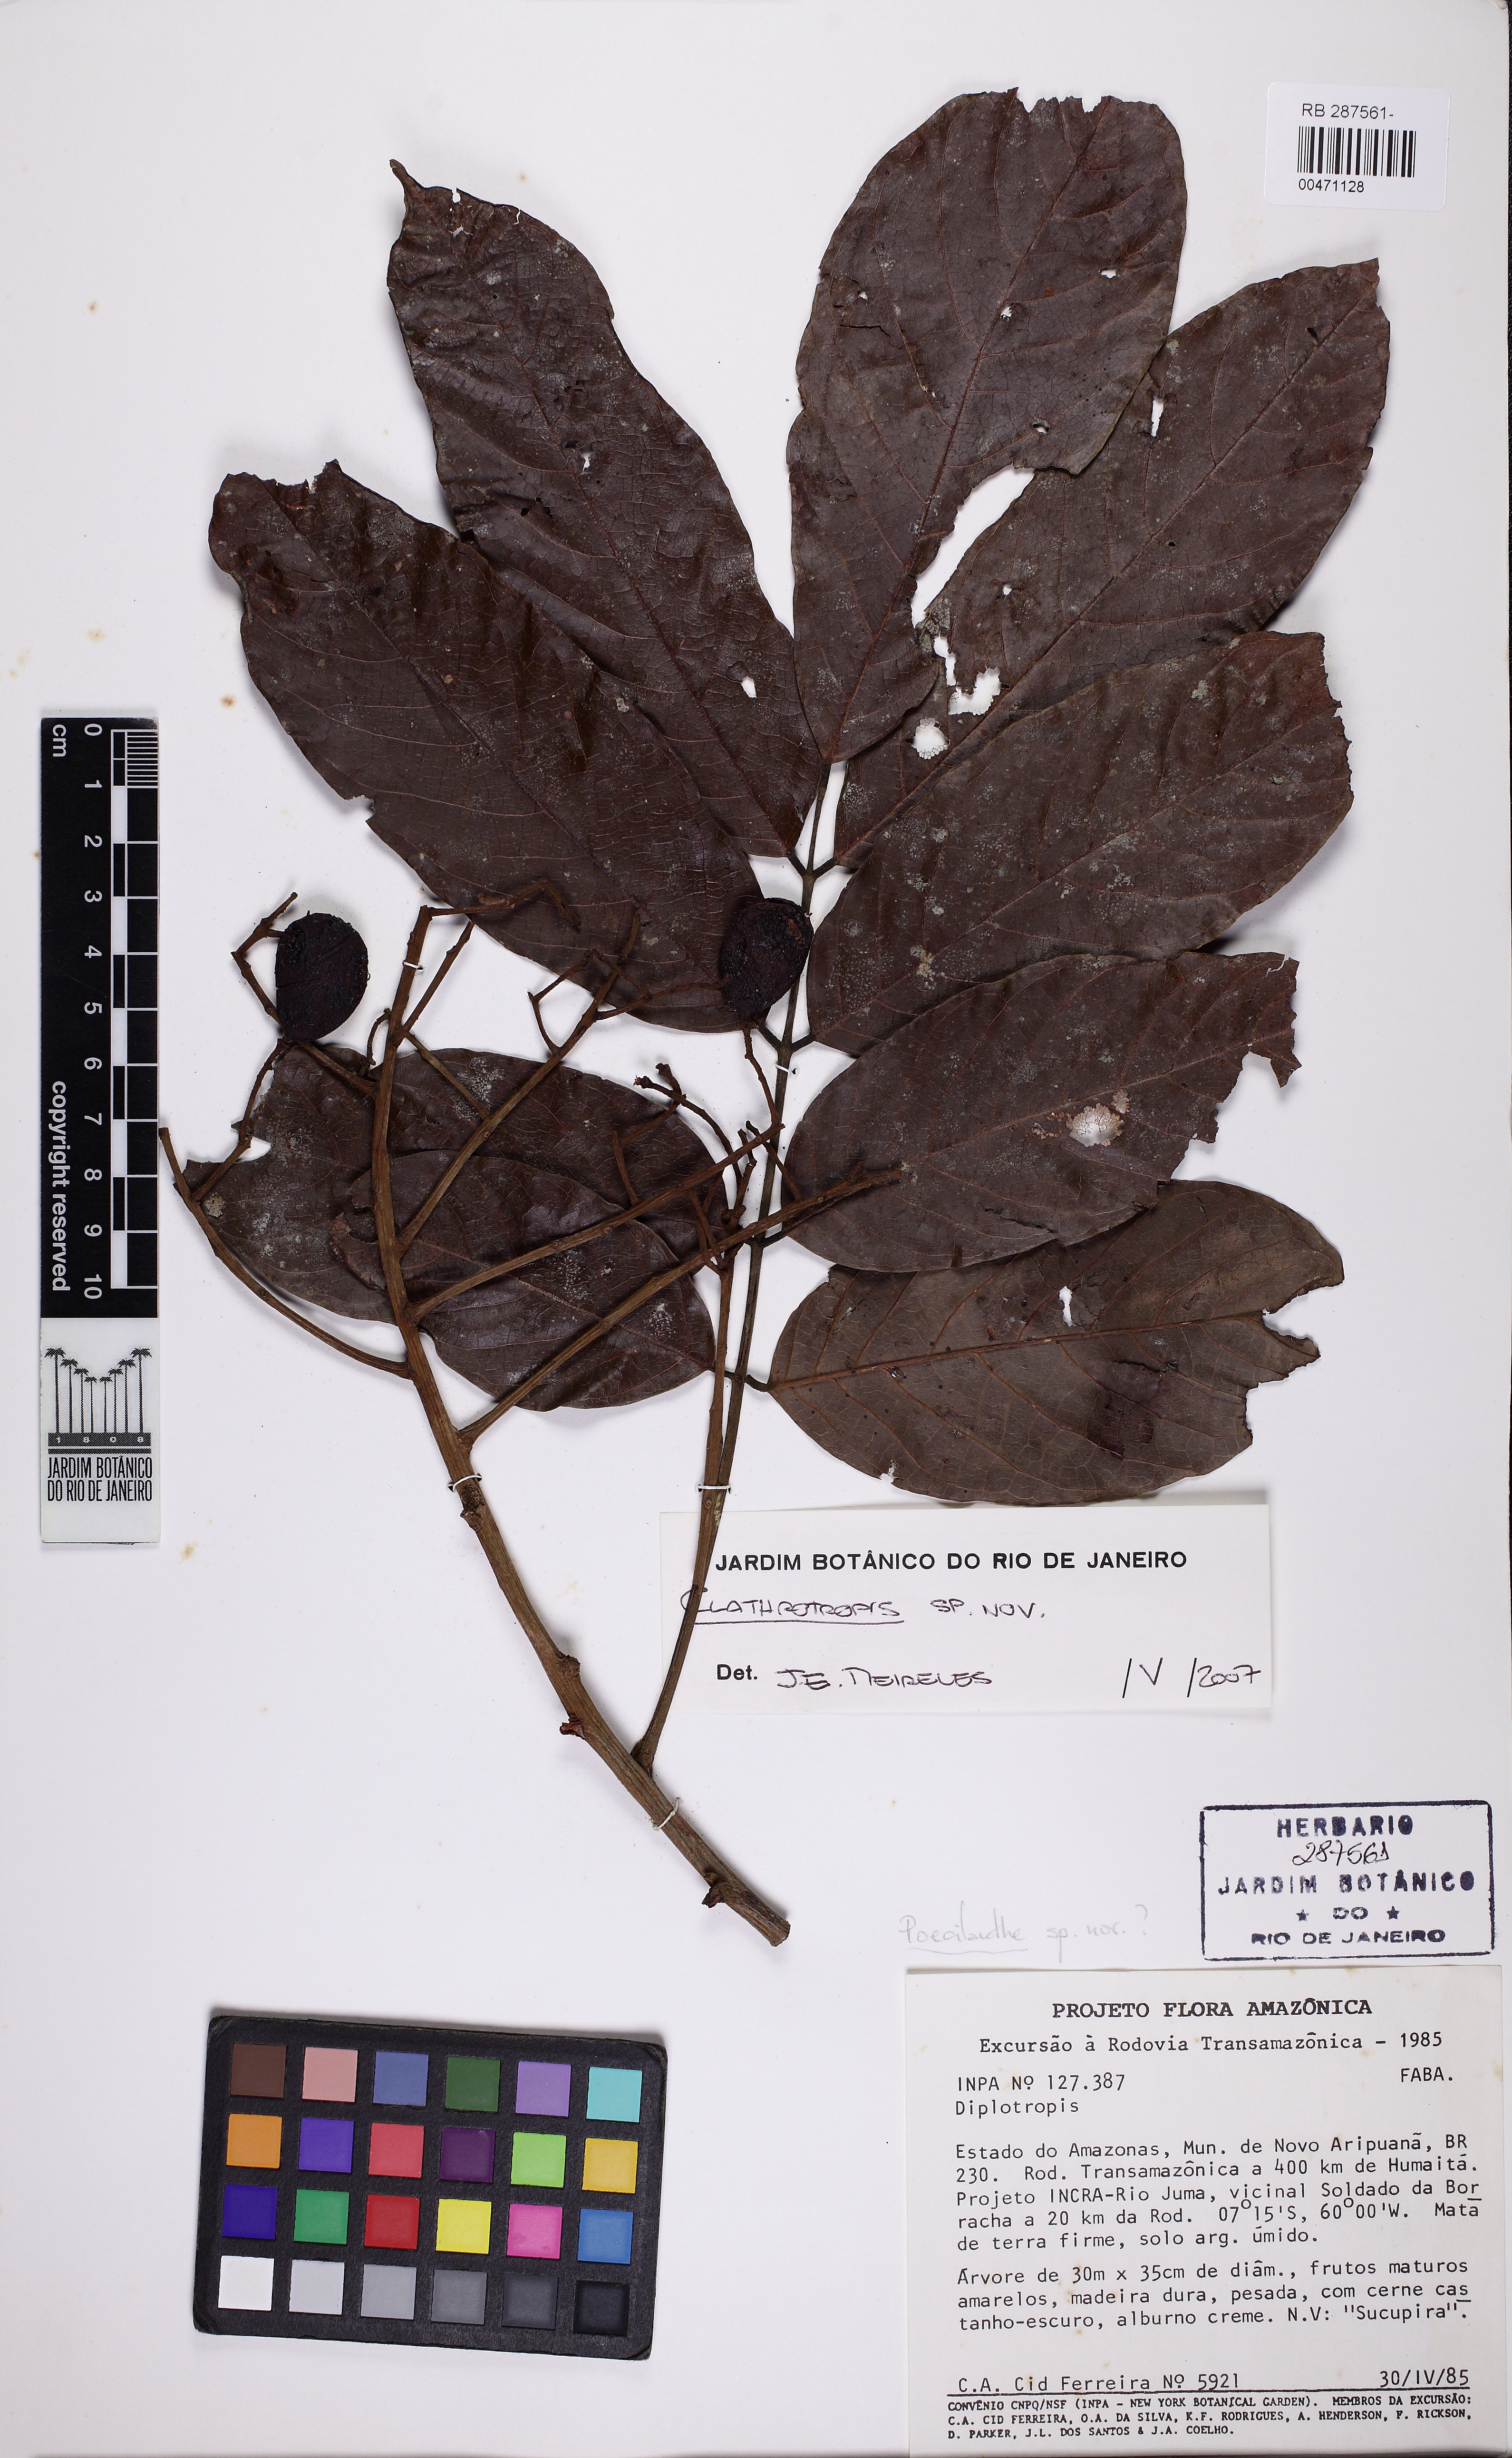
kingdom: Plantae
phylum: Tracheophyta
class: Magnoliopsida
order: Fabales
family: Fabaceae
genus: Clathrotropis
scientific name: Clathrotropis
